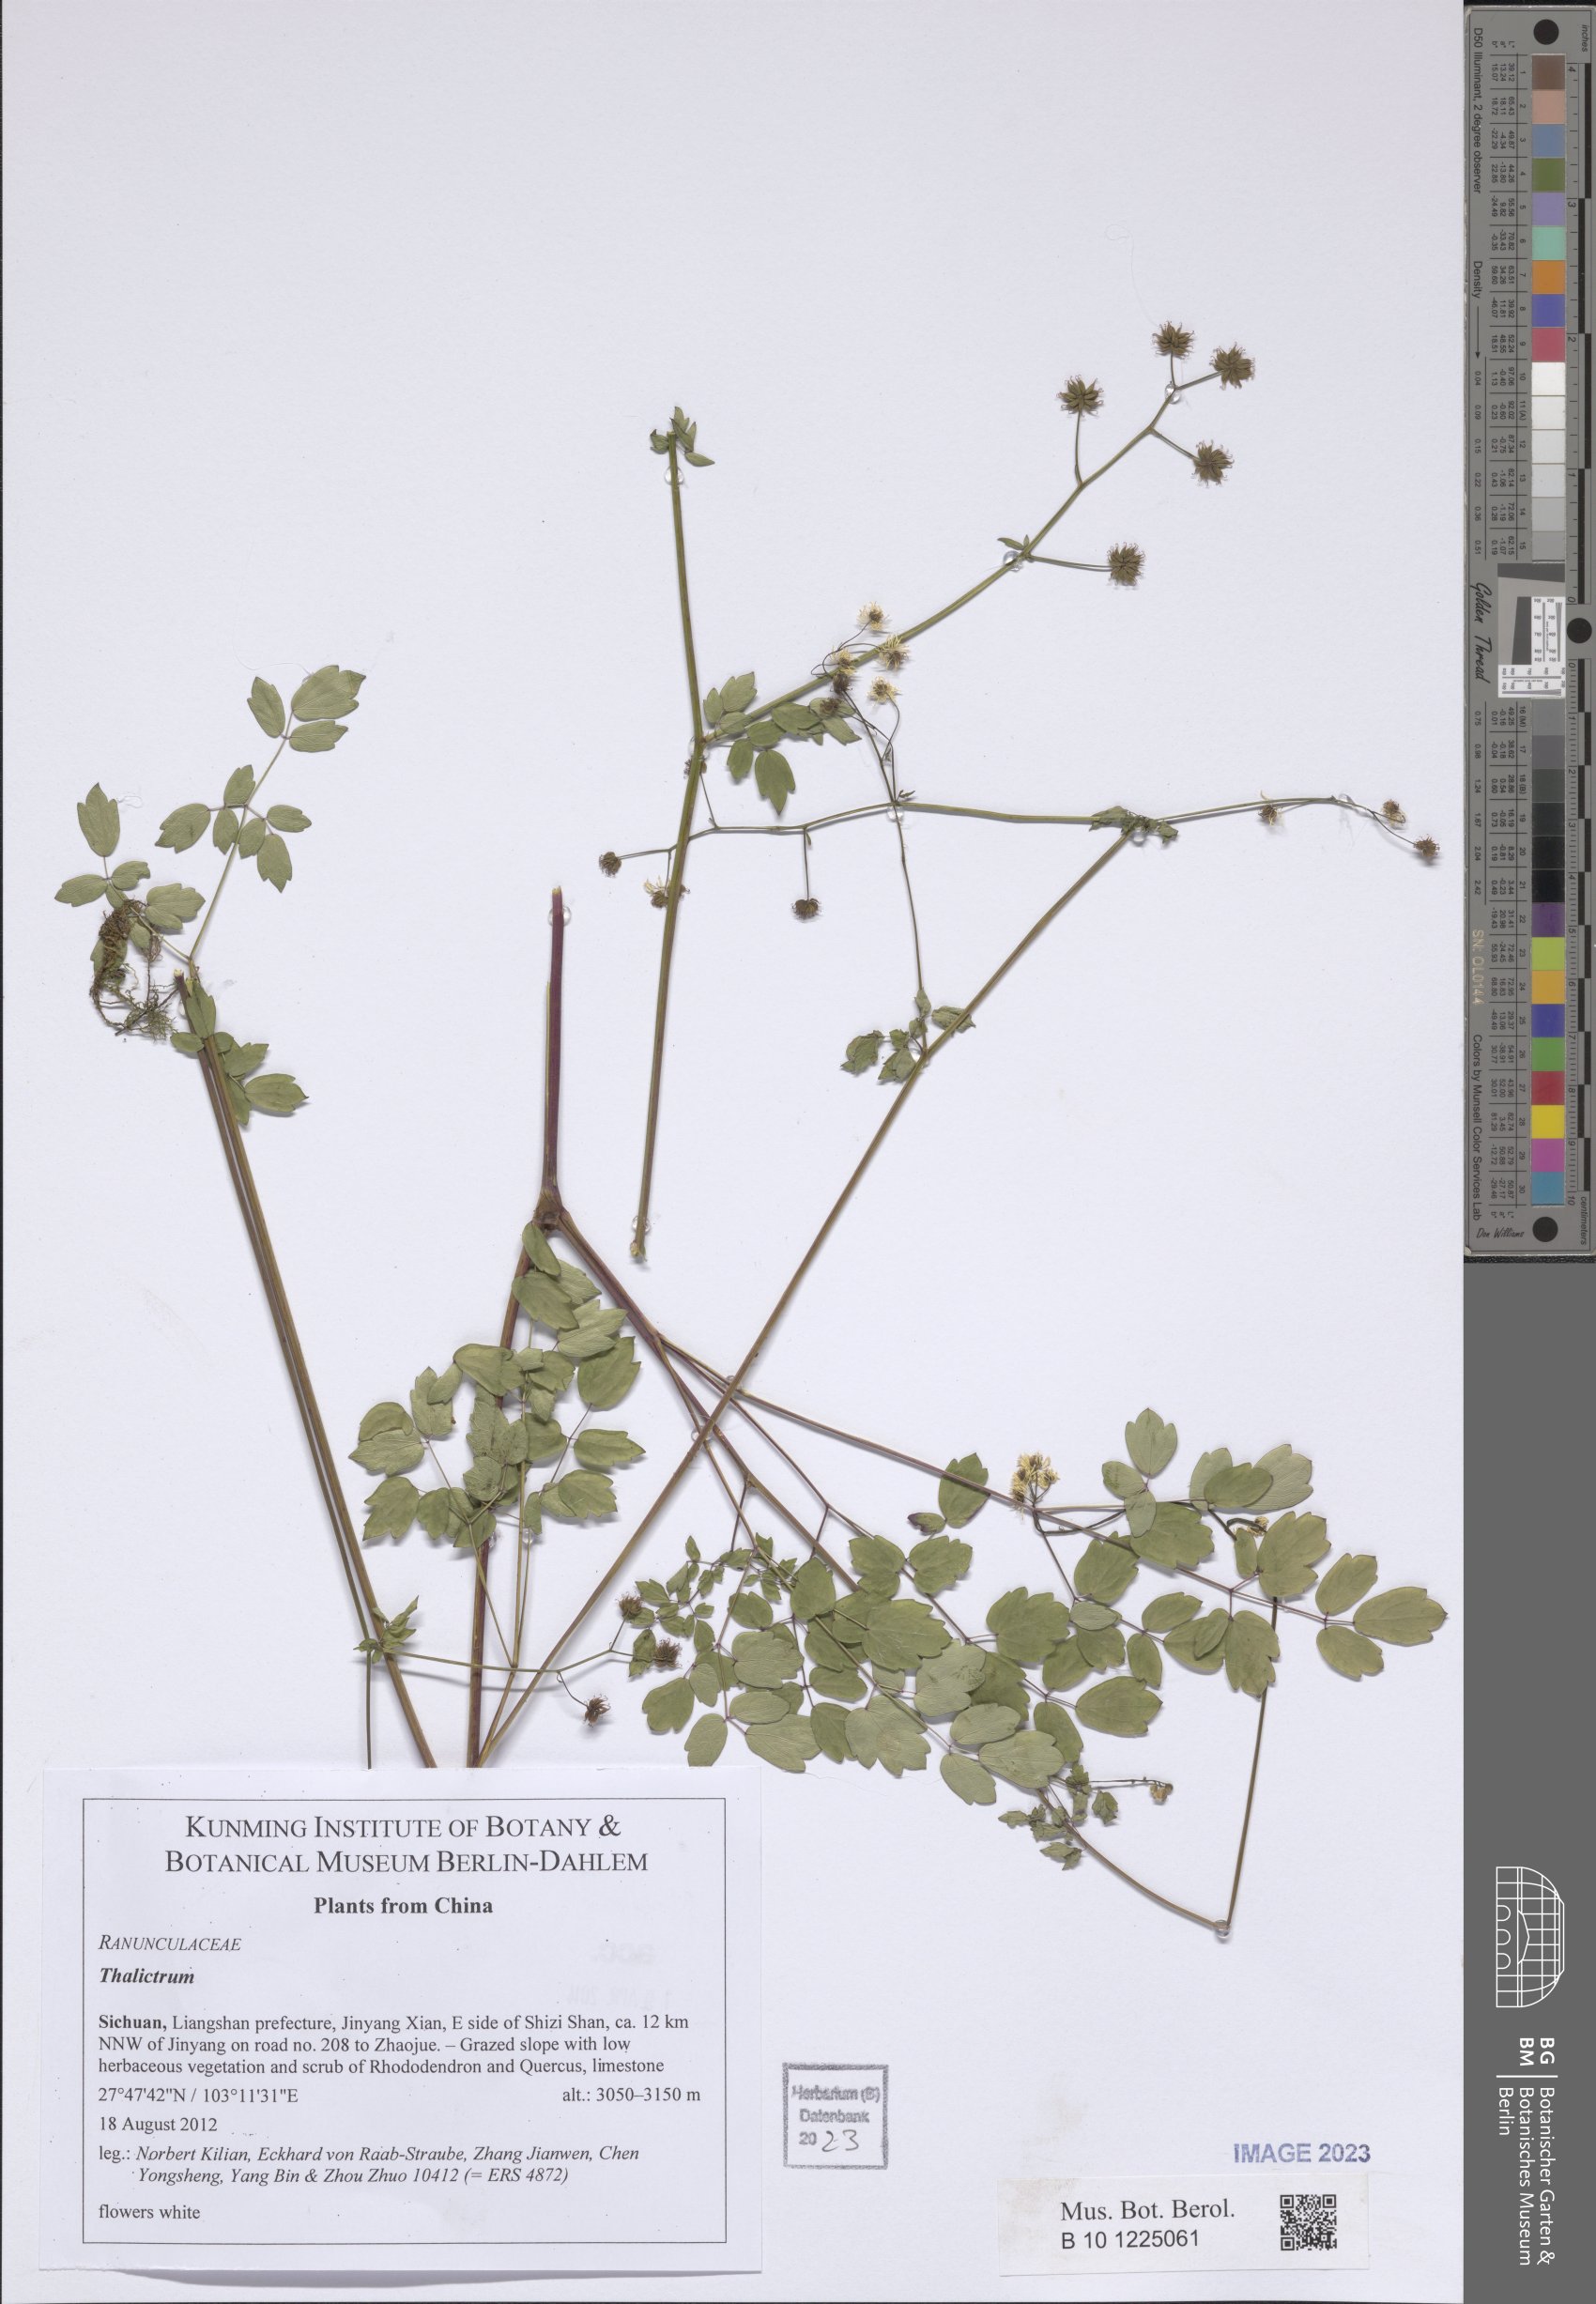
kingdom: Plantae
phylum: Tracheophyta
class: Magnoliopsida
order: Ranunculales
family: Ranunculaceae
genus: Thalictrum
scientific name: Thalictrum
